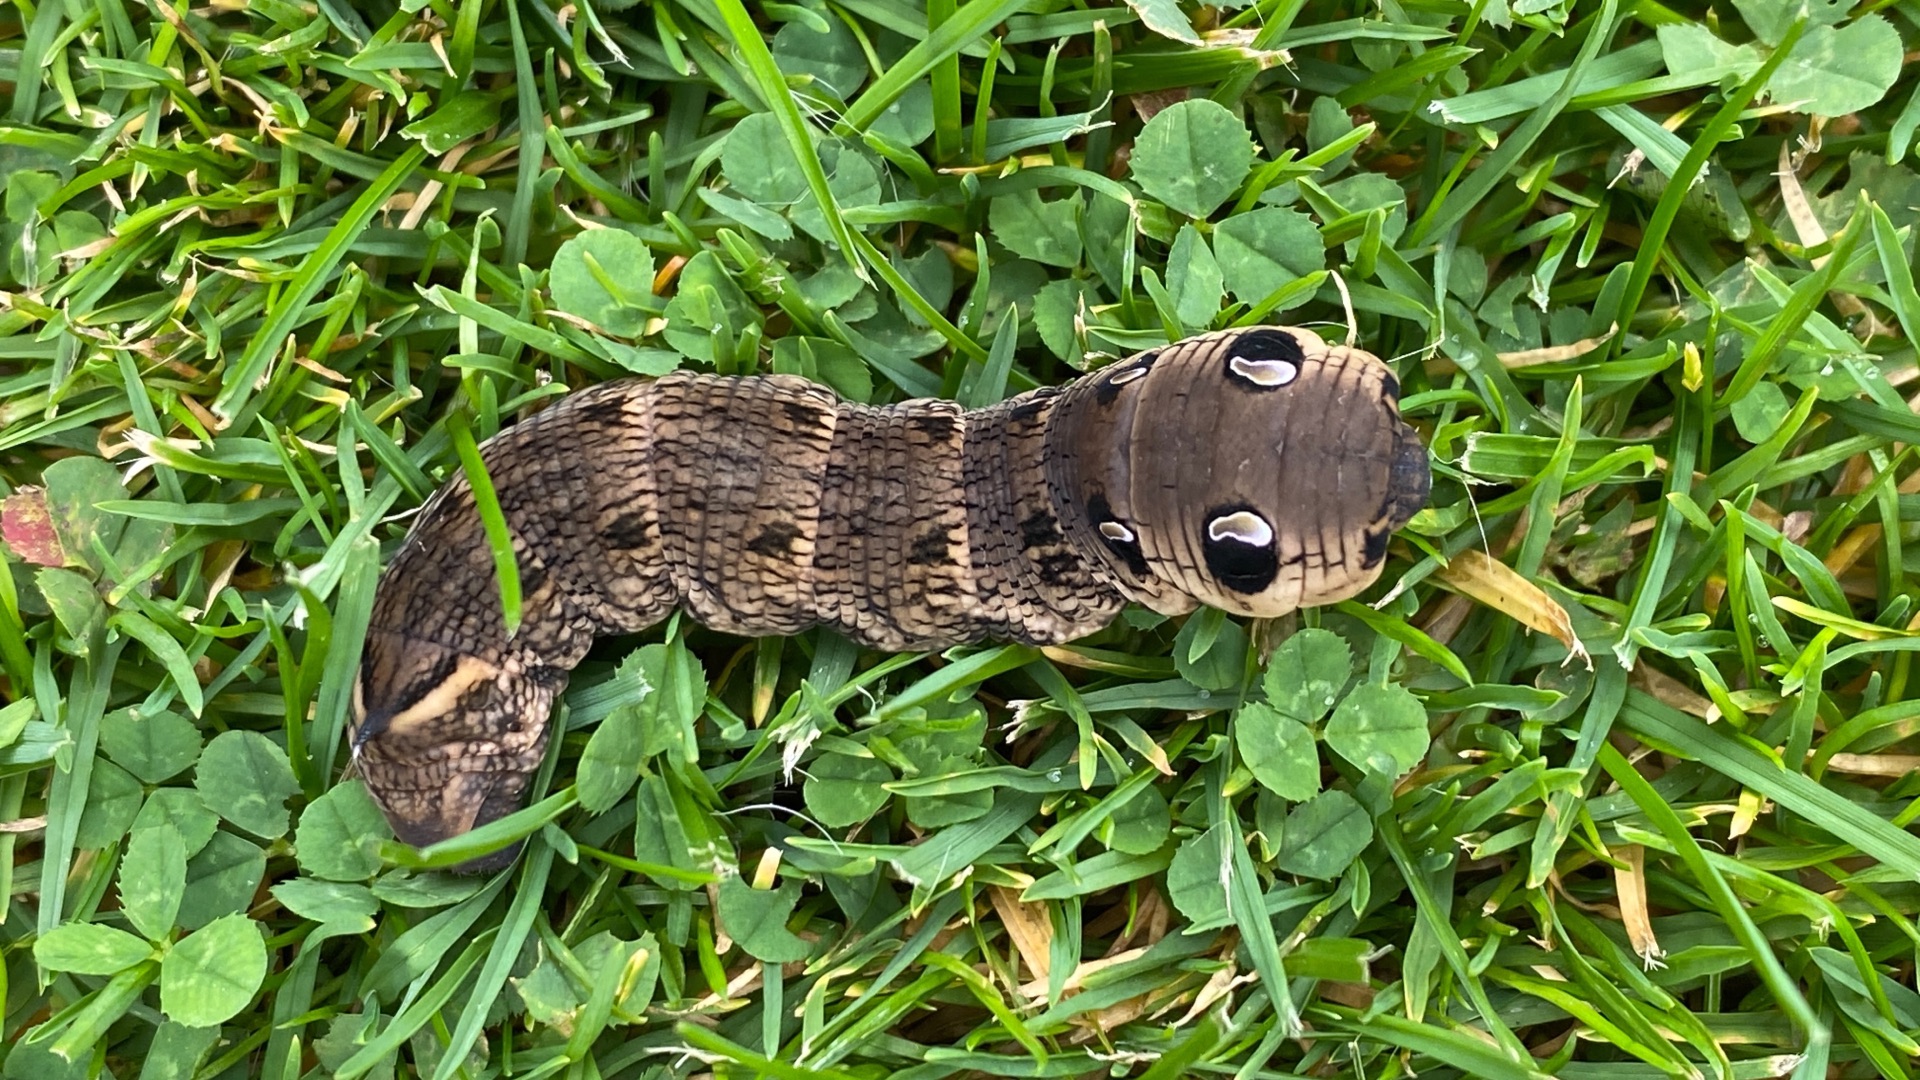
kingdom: Animalia
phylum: Arthropoda
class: Insecta
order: Lepidoptera
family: Sphingidae
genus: Deilephila
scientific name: Deilephila elpenor
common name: Dueurtsværmer
